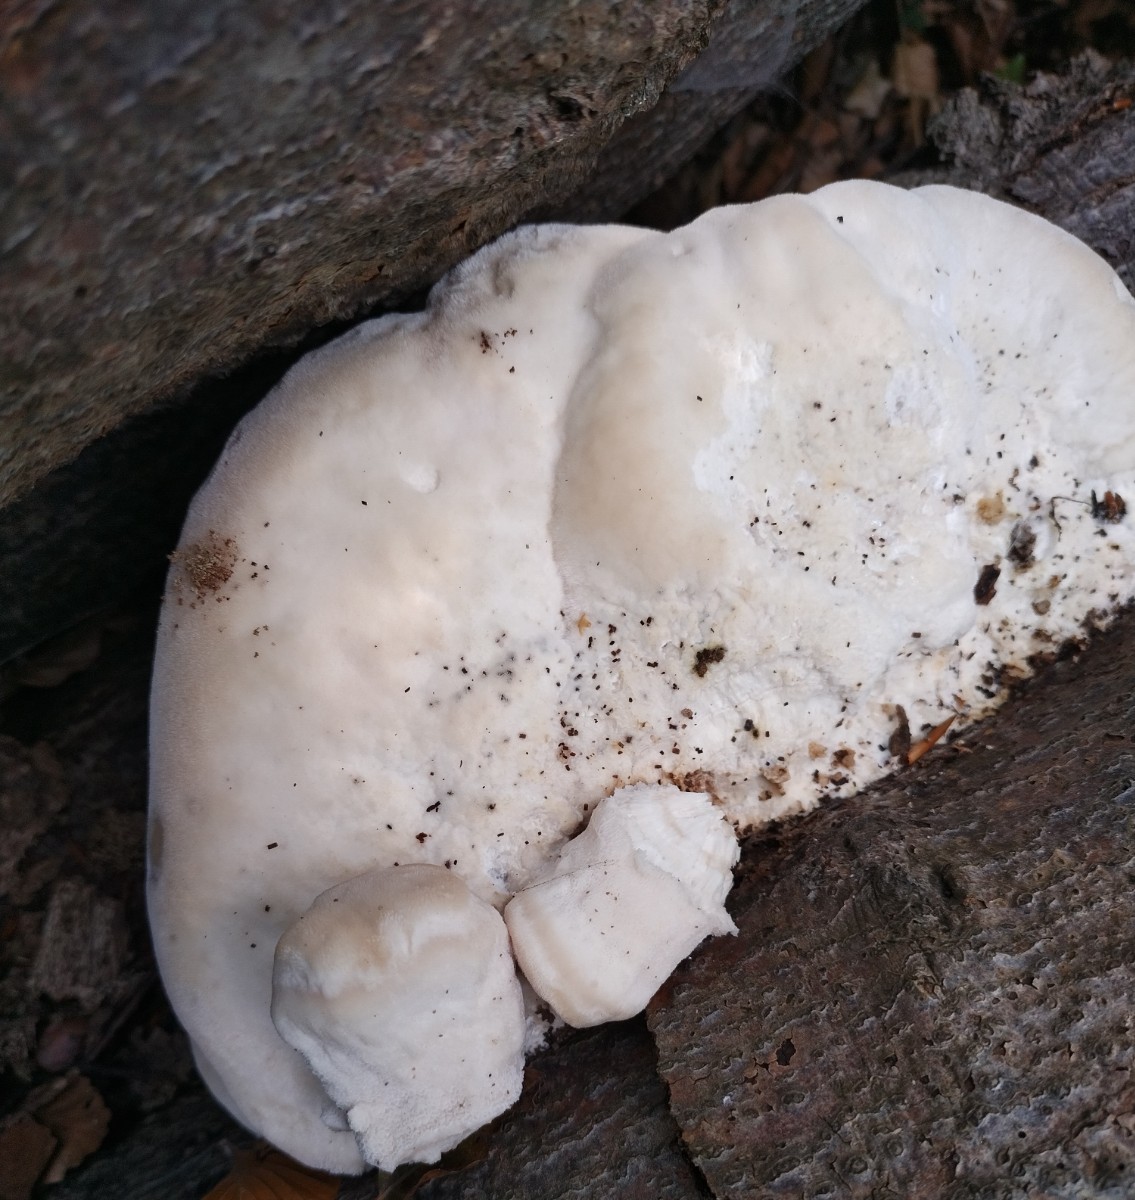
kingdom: Fungi
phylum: Basidiomycota
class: Agaricomycetes
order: Polyporales
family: Meruliaceae
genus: Pappia
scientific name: Pappia fissilis
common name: sej fedtporesvamp
